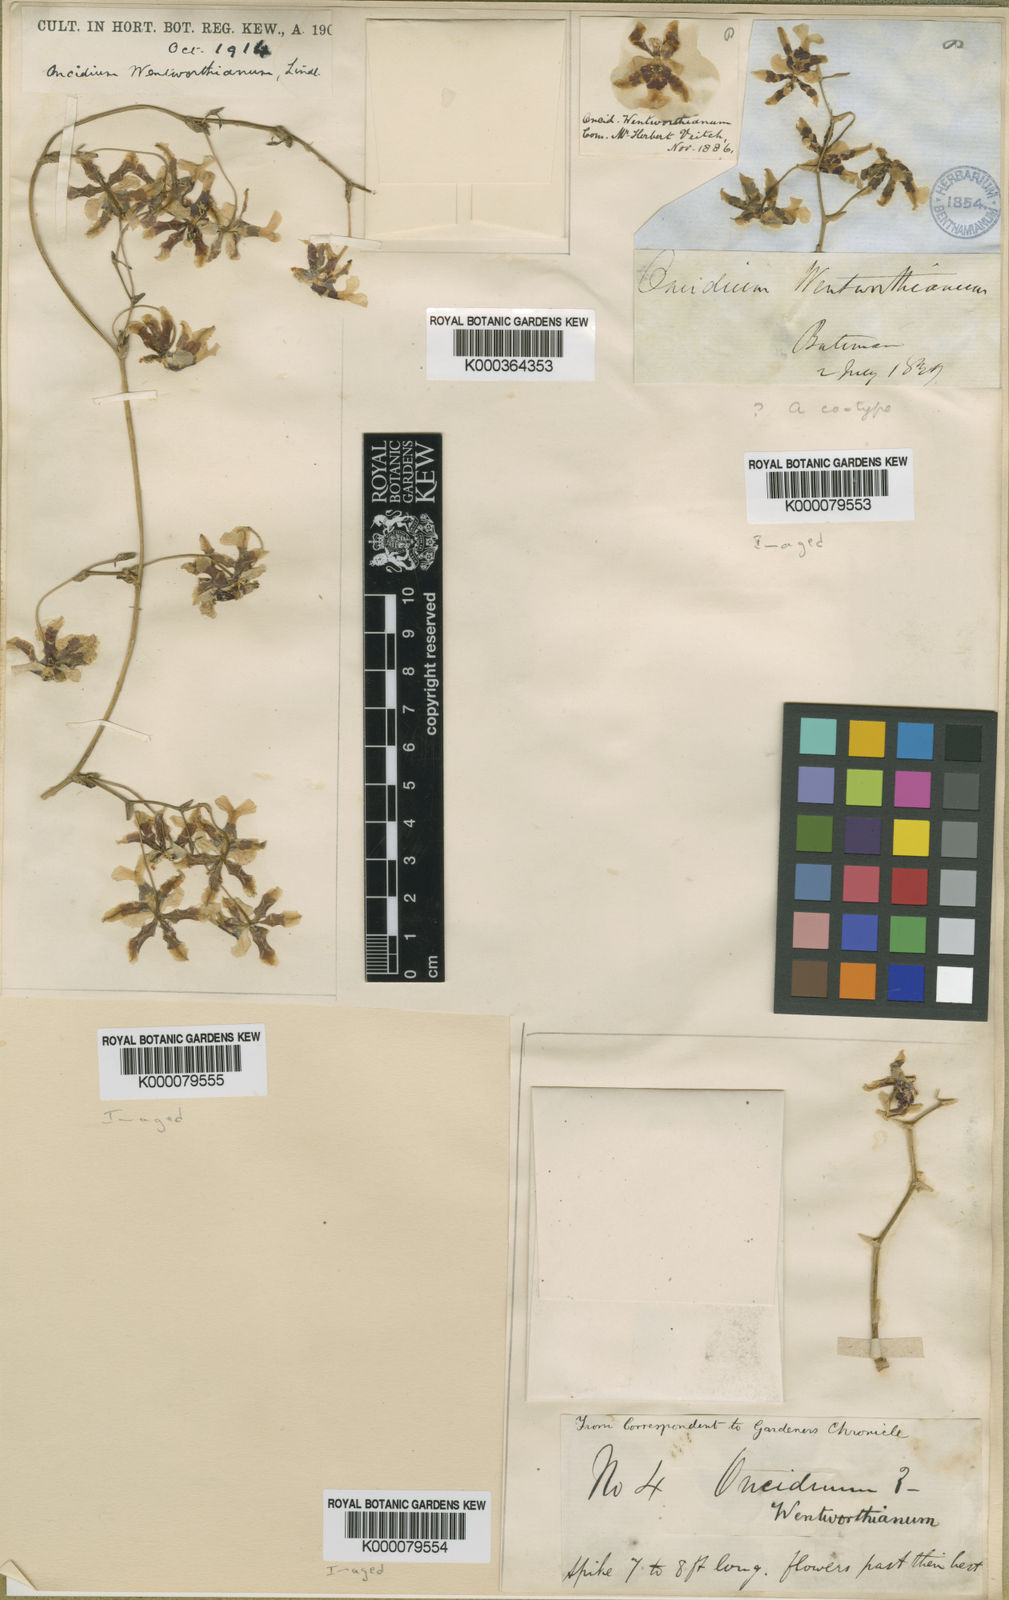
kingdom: Plantae
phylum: Tracheophyta
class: Liliopsida
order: Asparagales
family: Orchidaceae
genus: Oncidium
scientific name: Oncidium wentworthianum
